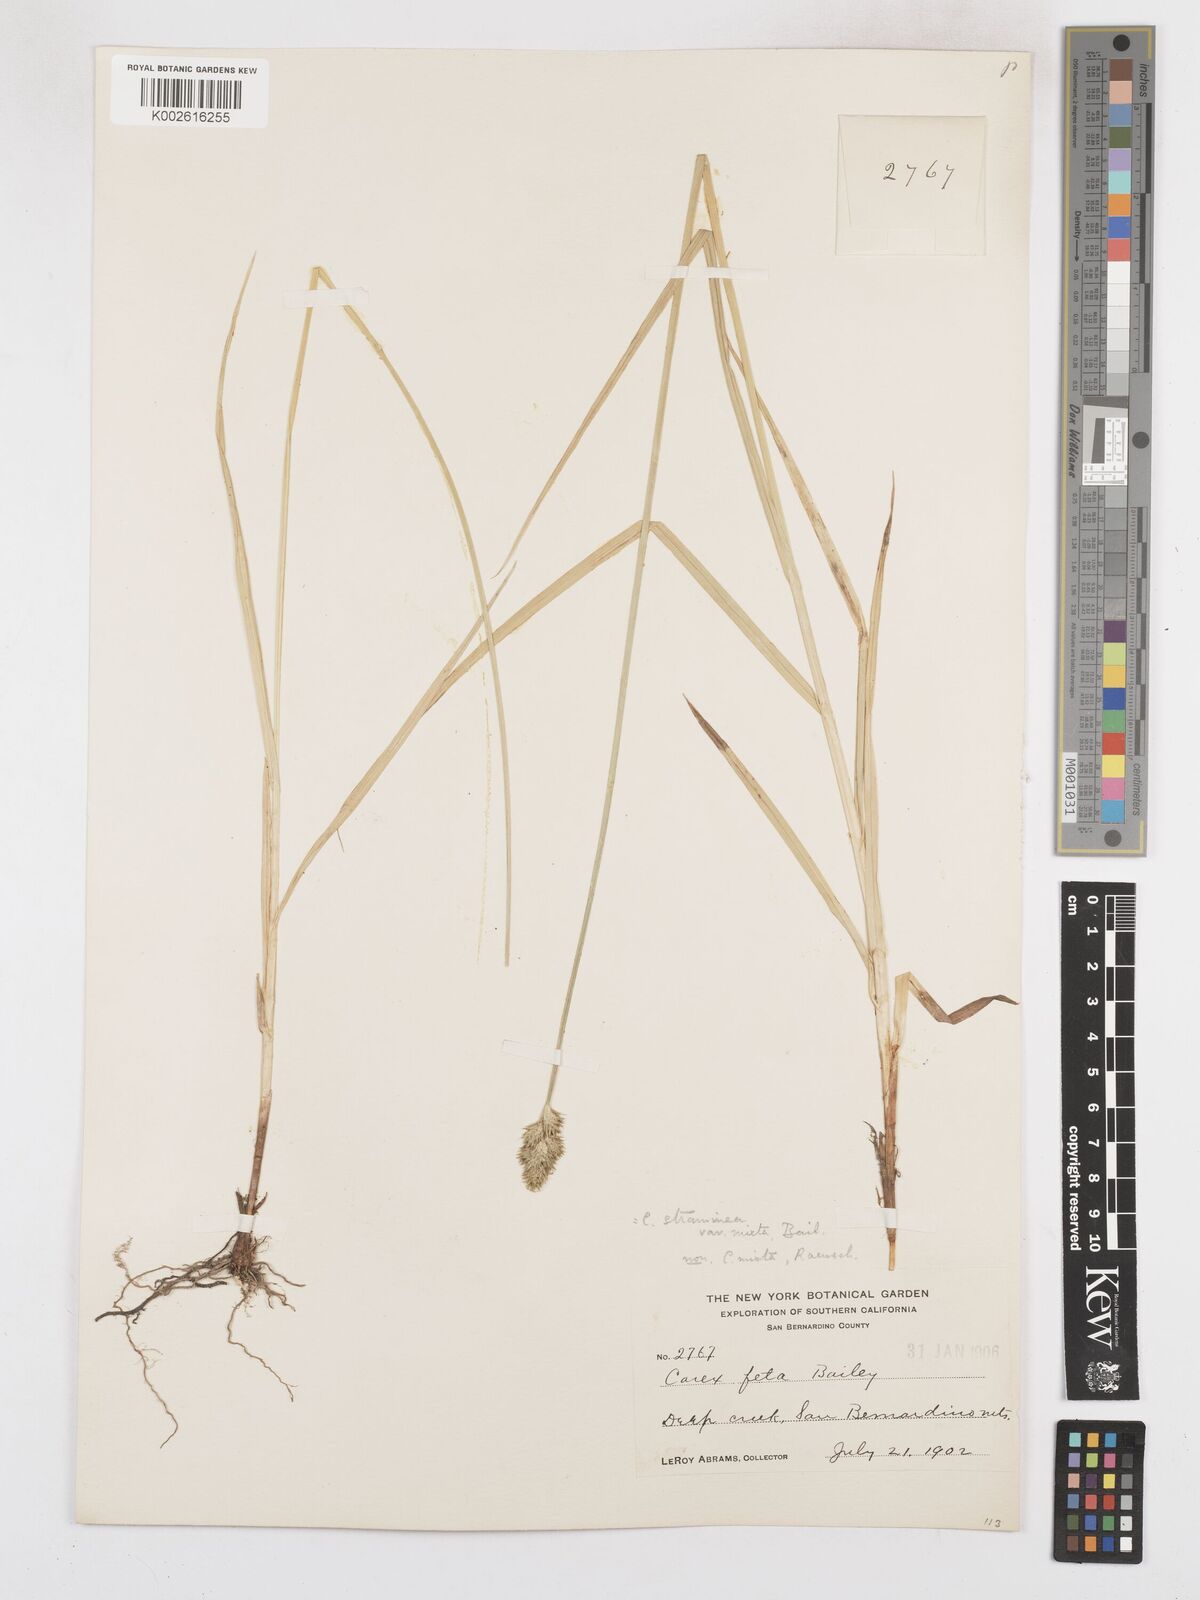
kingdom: Plantae
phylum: Tracheophyta
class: Liliopsida
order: Poales
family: Cyperaceae
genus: Carex
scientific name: Carex feta
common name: Green-sheathed sedge
